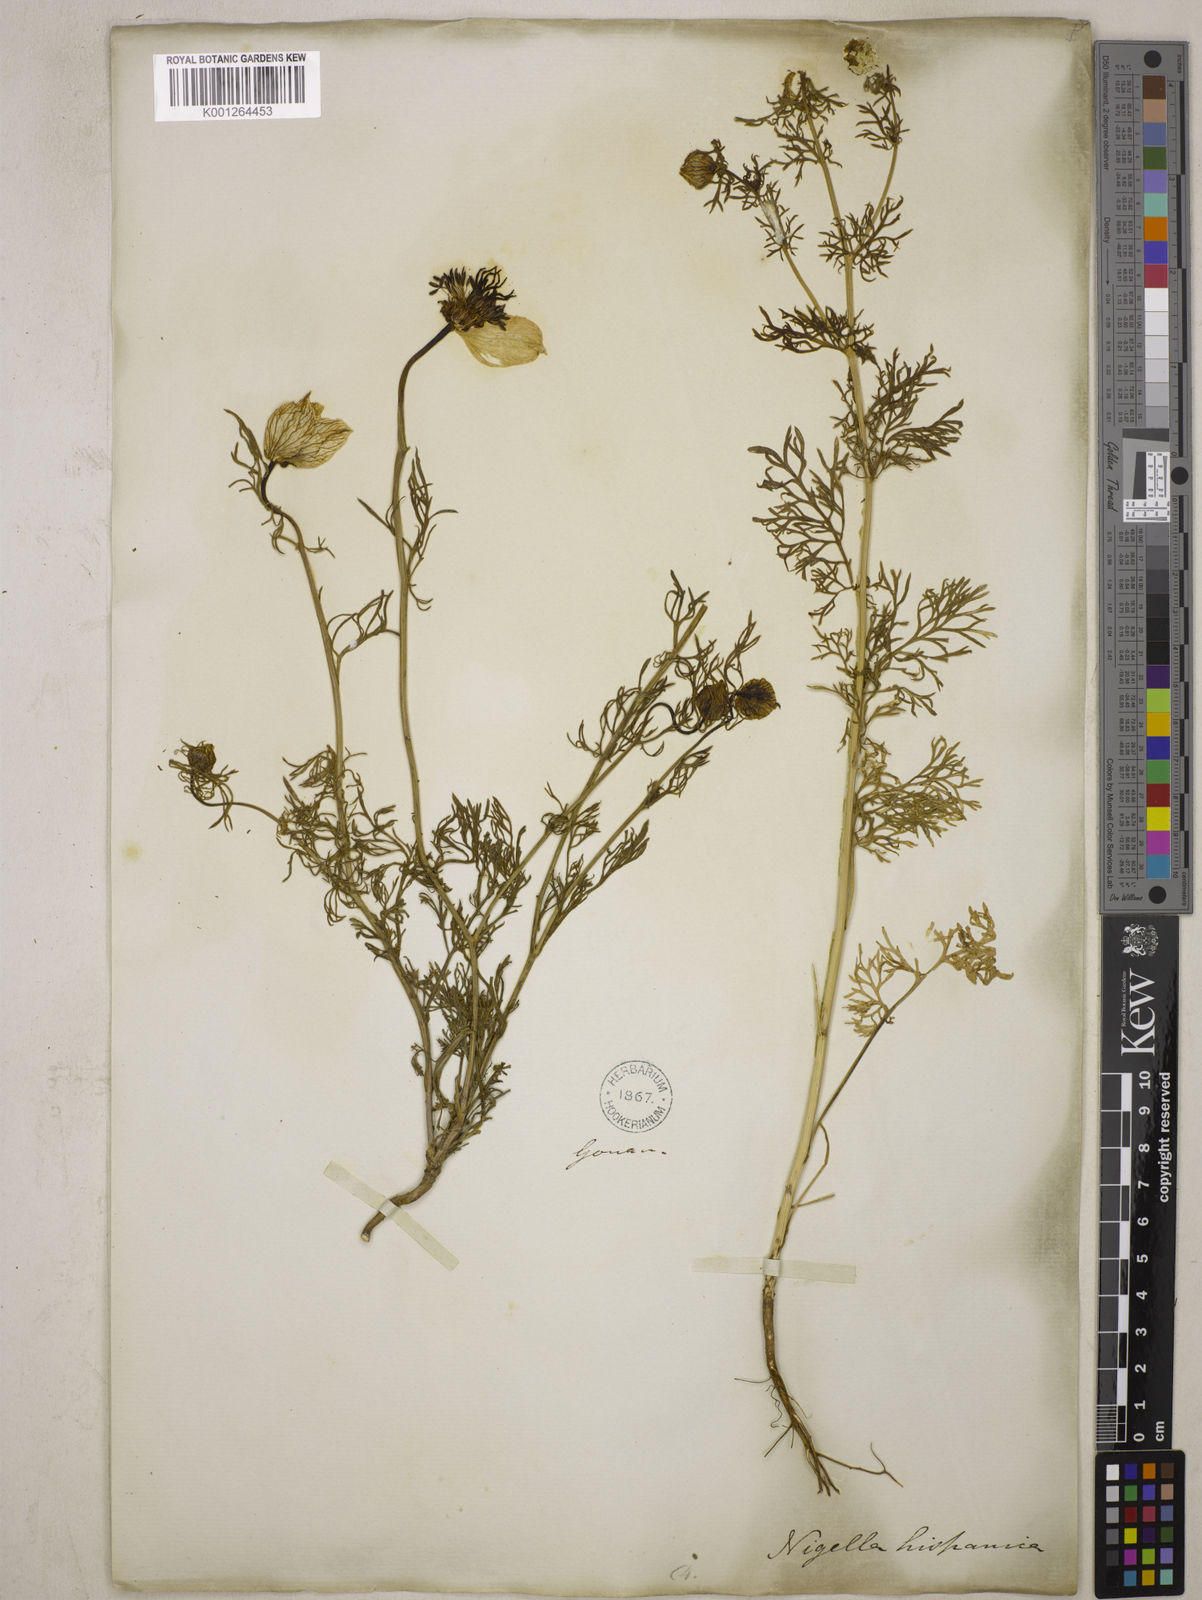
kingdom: Plantae
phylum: Tracheophyta
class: Magnoliopsida
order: Ranunculales
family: Ranunculaceae
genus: Nigella
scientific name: Nigella hispanica
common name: Fennel-flower
